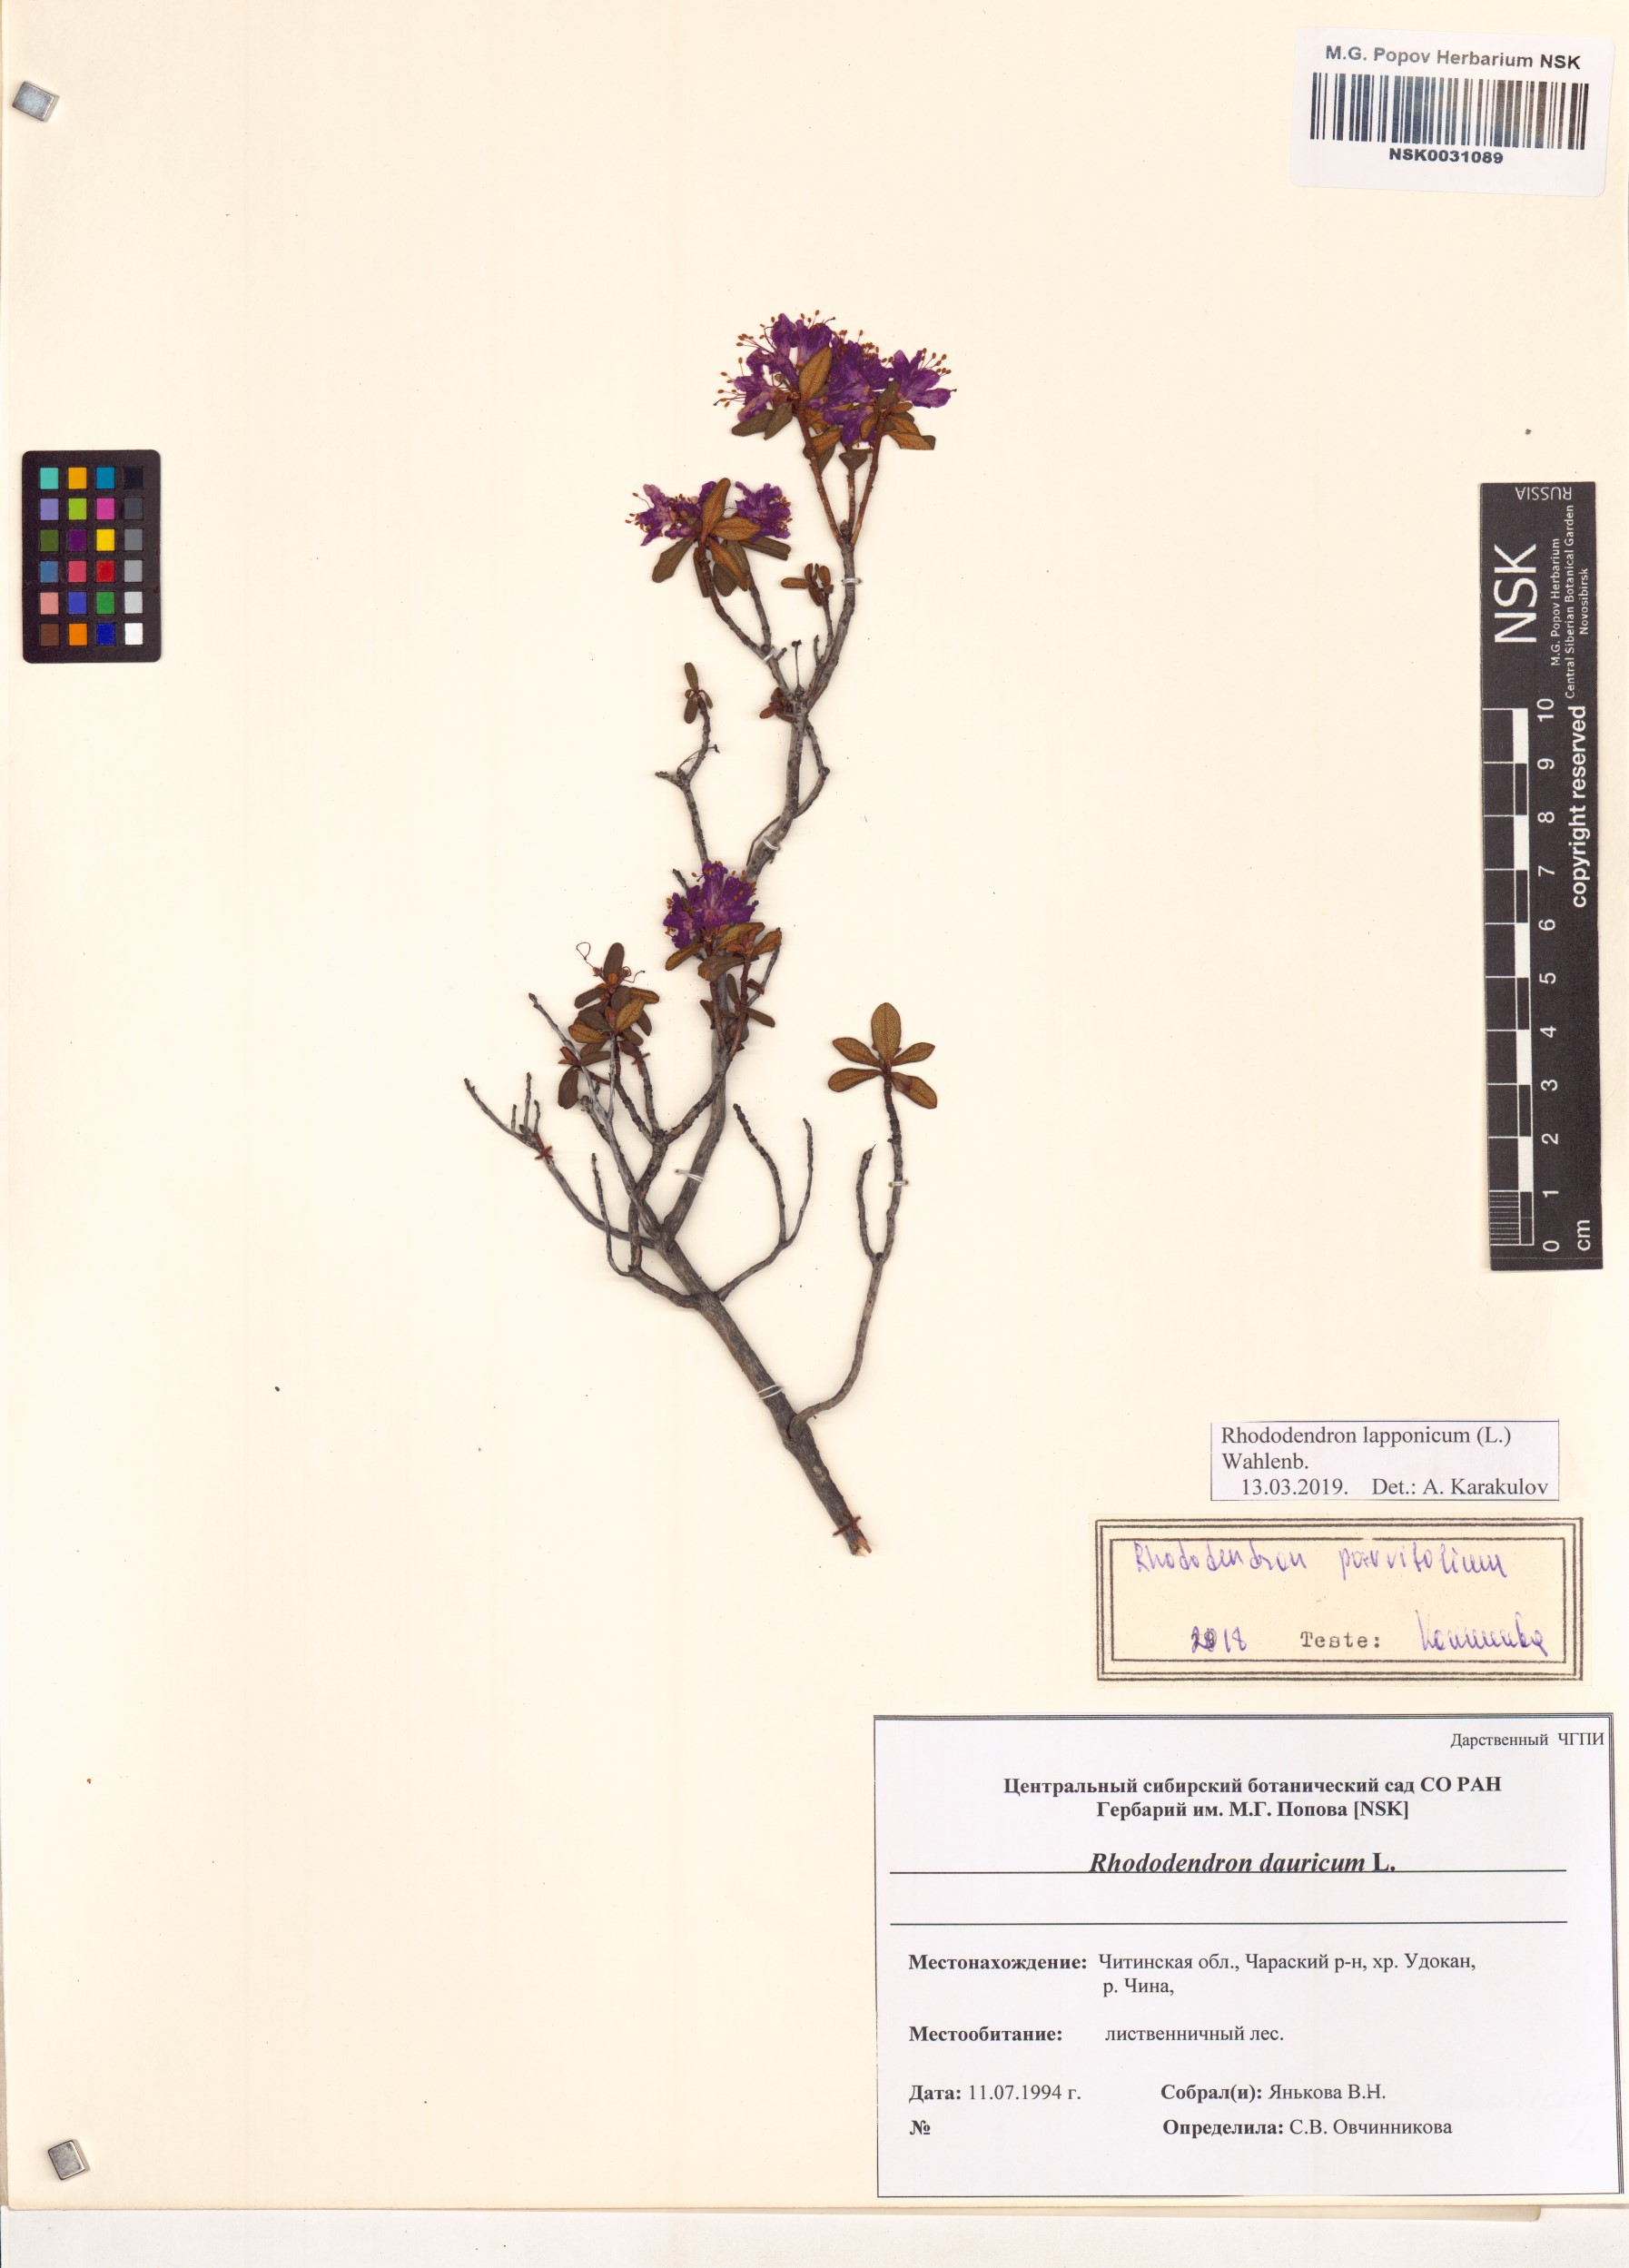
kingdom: Plantae
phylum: Tracheophyta
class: Magnoliopsida
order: Ericales
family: Ericaceae
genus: Rhododendron
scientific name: Rhododendron lapponicum
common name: Lapland rhododendron
